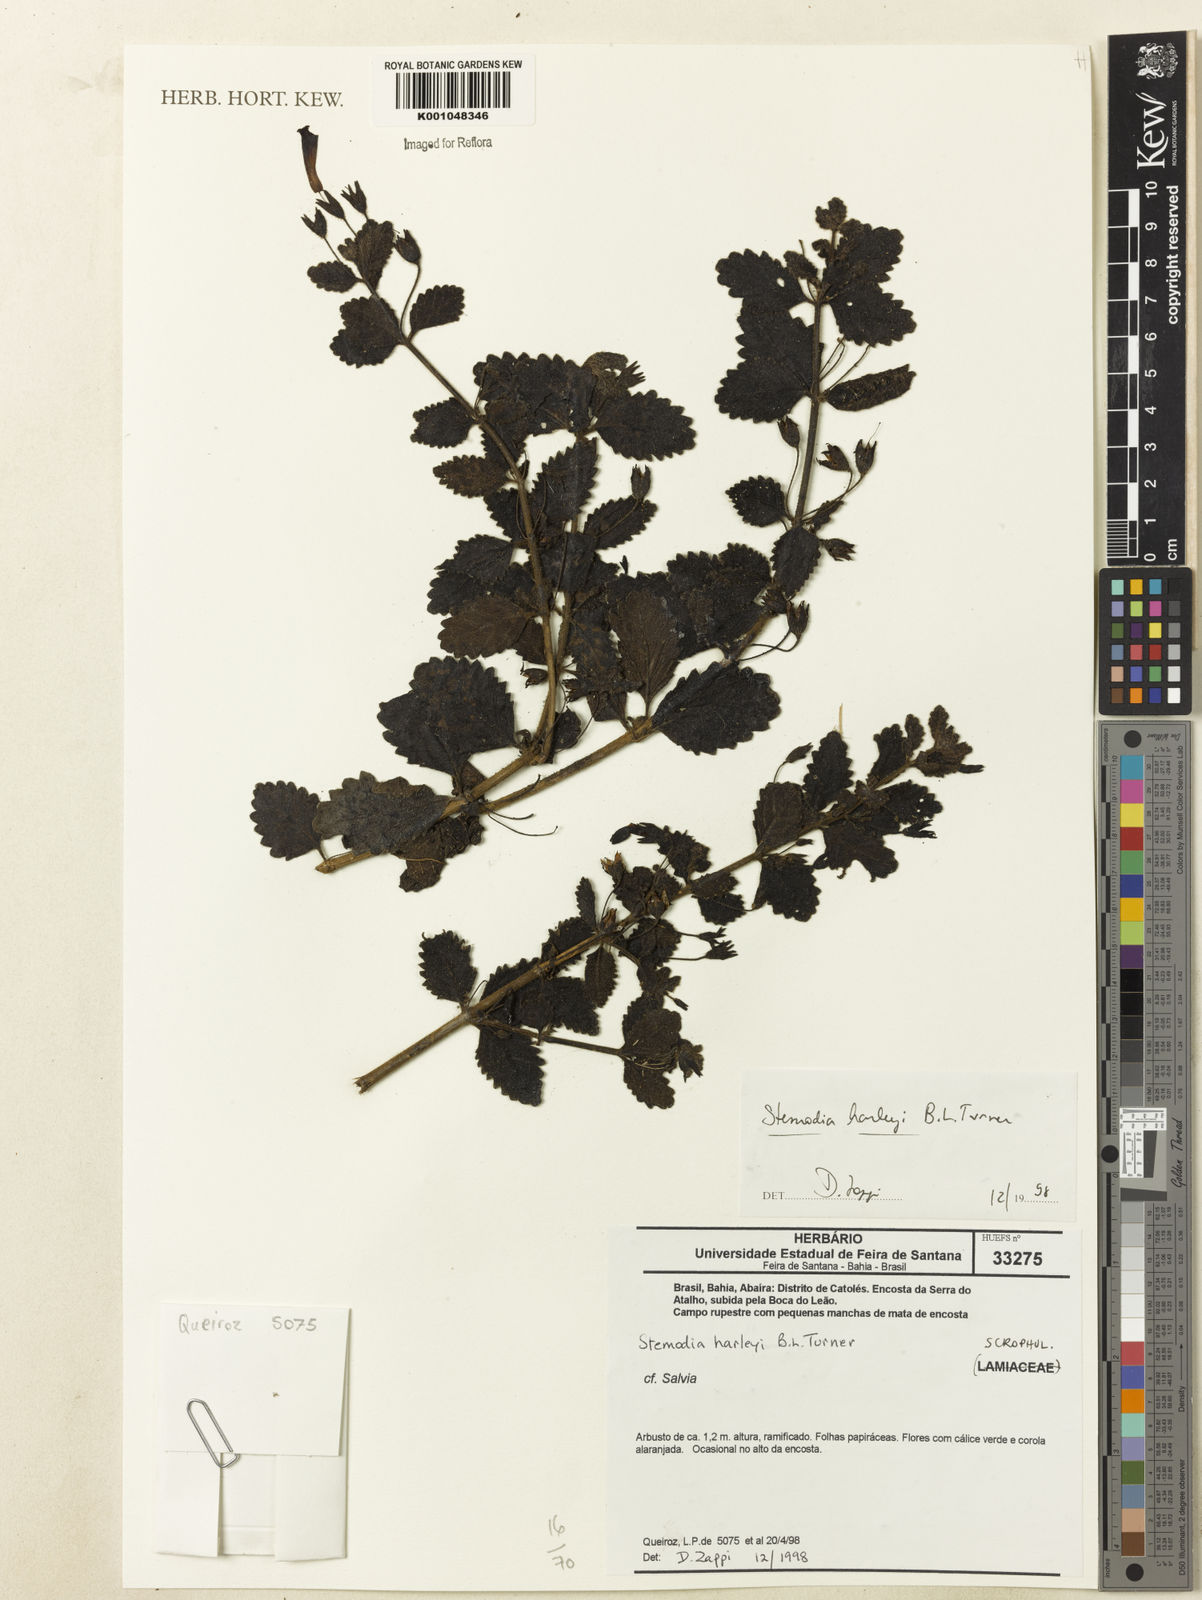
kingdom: Plantae
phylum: Tracheophyta
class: Magnoliopsida
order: Lamiales
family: Plantaginaceae
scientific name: Plantaginaceae
